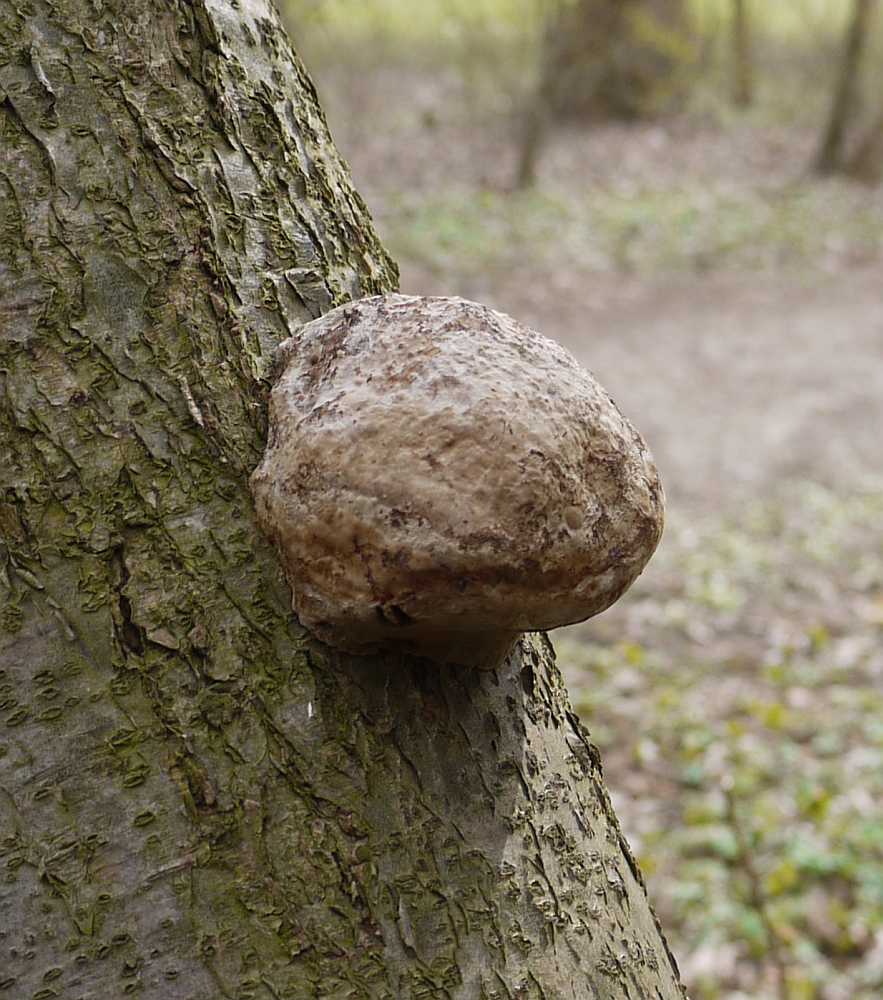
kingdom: Fungi
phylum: Basidiomycota
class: Agaricomycetes
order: Polyporales
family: Polyporaceae
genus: Fomes
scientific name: Fomes fomentarius
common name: tøndersvamp
